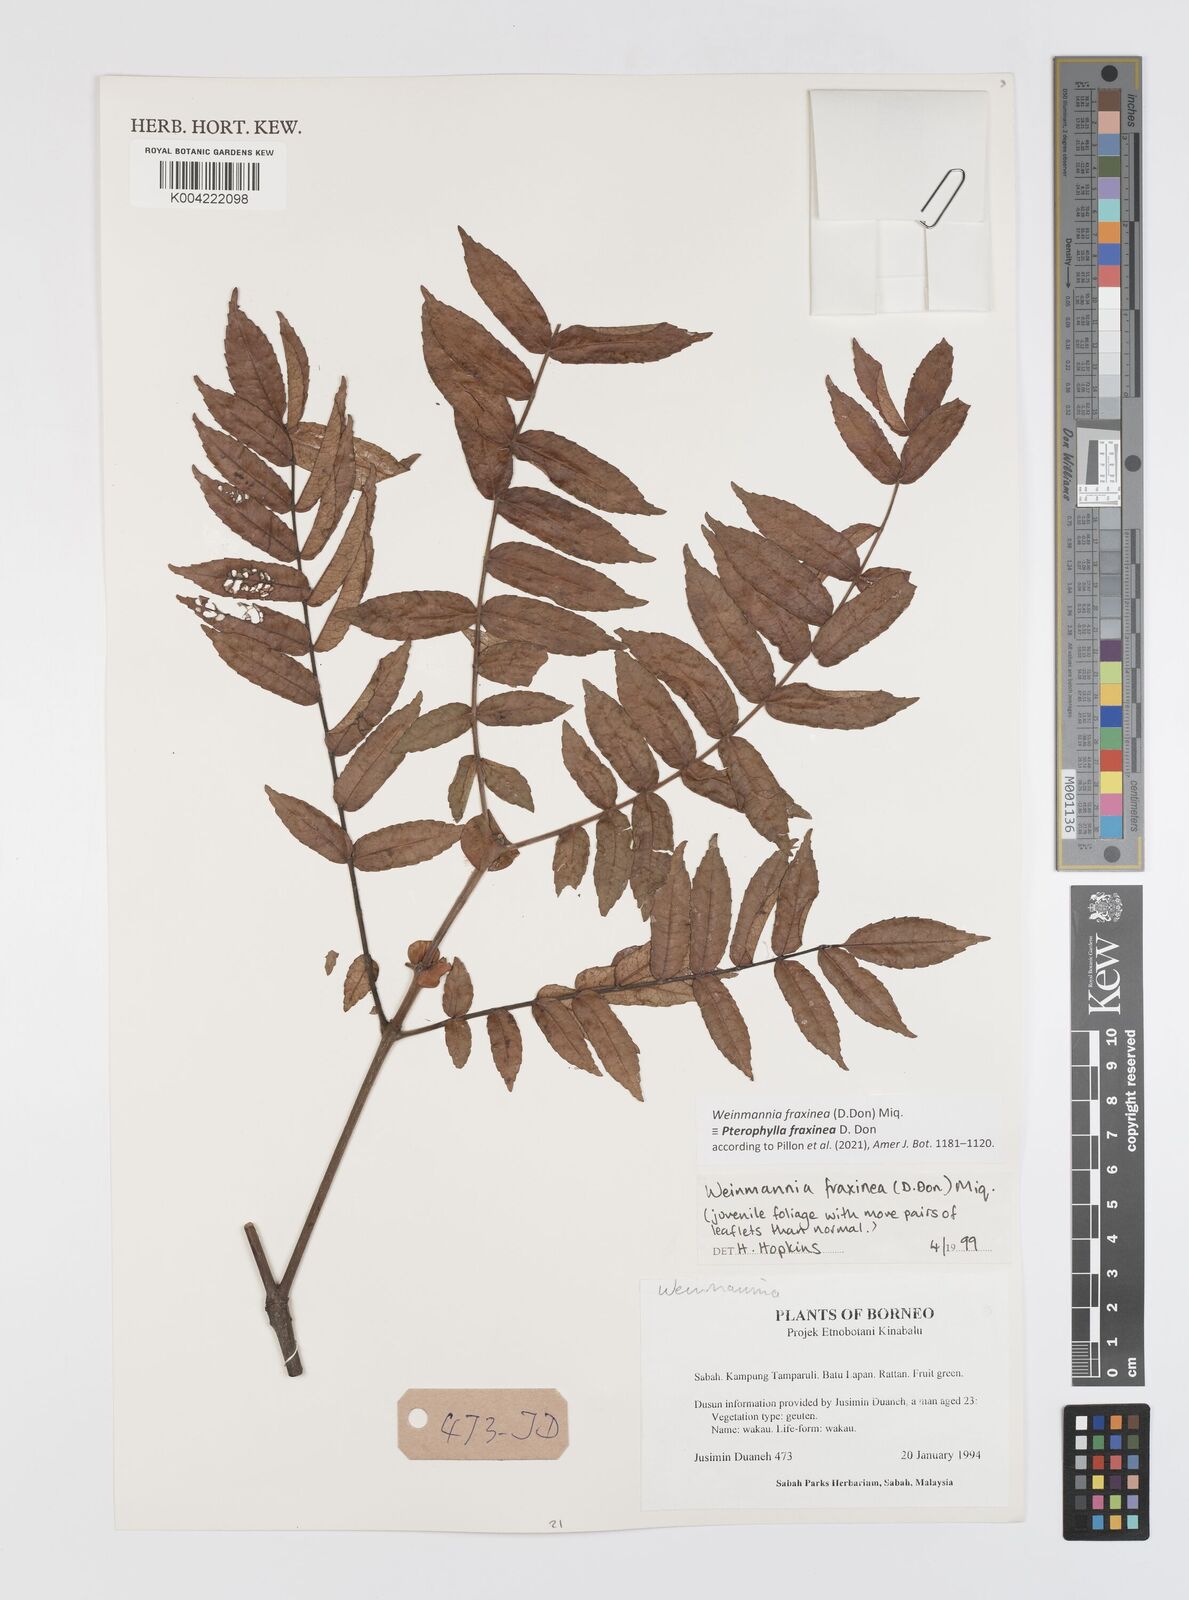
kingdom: Plantae
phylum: Tracheophyta
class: Magnoliopsida
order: Oxalidales
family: Cunoniaceae
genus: Pterophylla
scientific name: Pterophylla fraxinea
